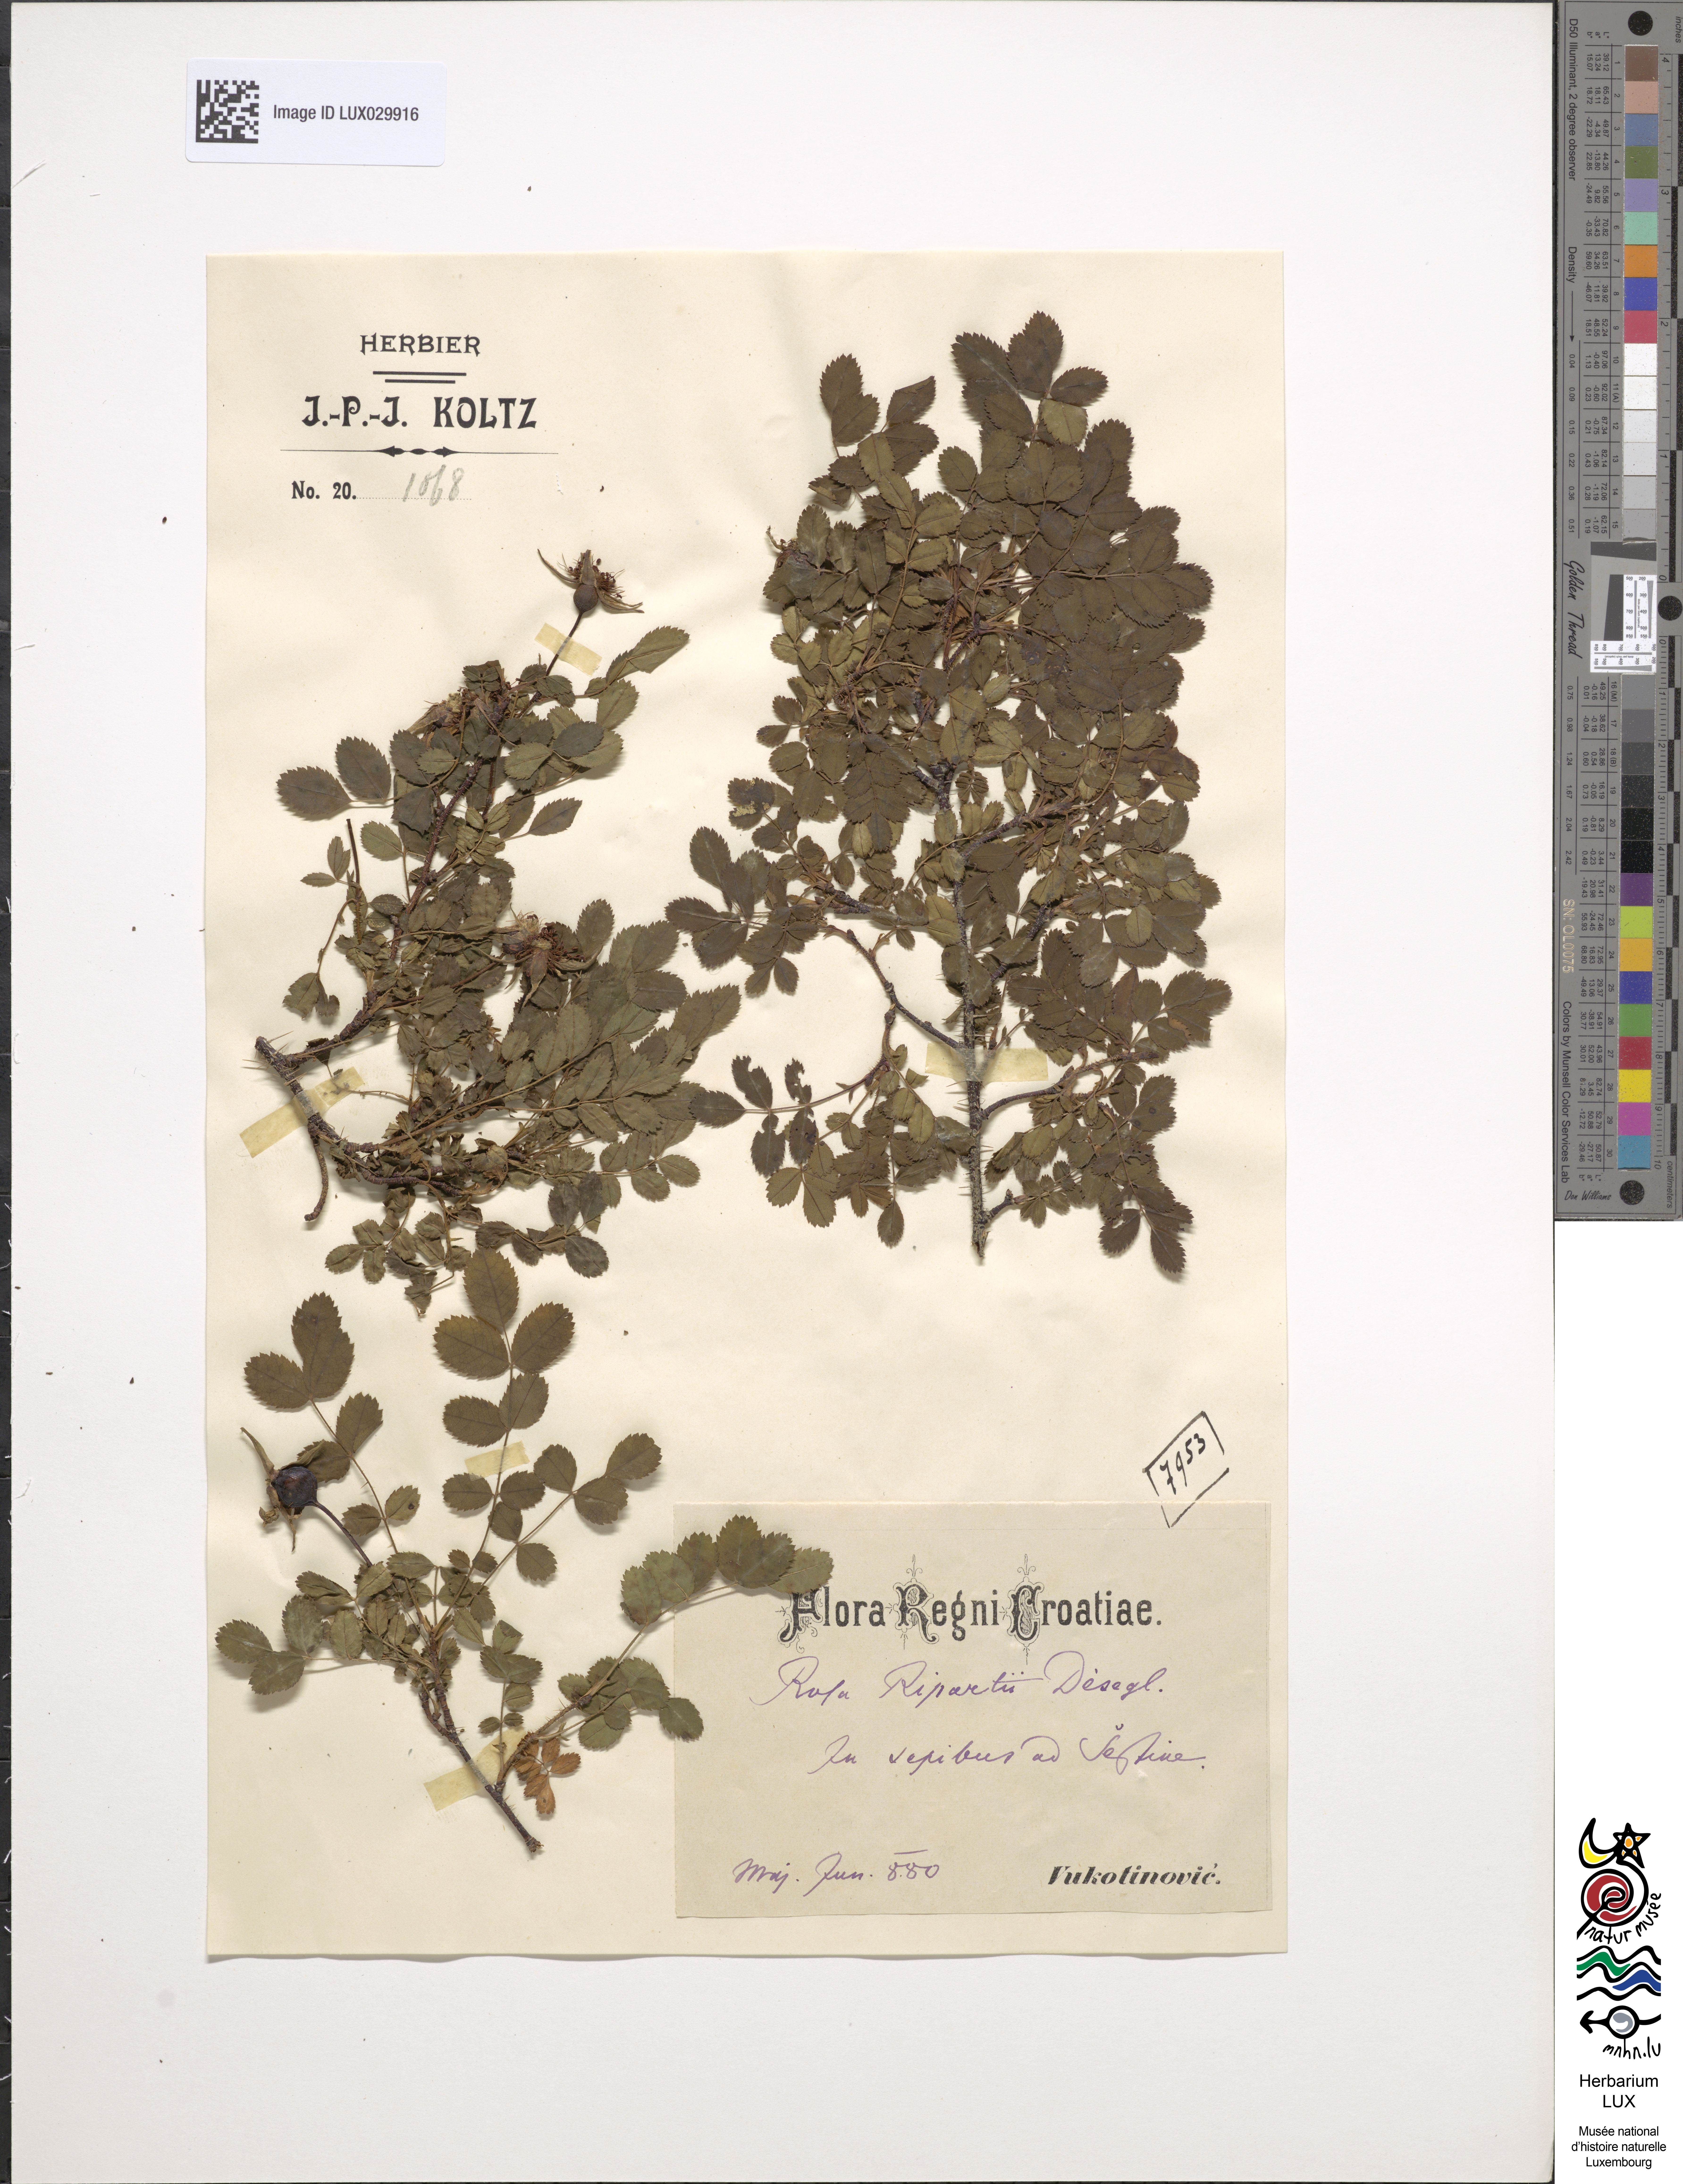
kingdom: Plantae
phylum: Tracheophyta
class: Magnoliopsida
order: Rosales
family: Rosaceae
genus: Rosa
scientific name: Rosa spinosissima
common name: Burnet rose
